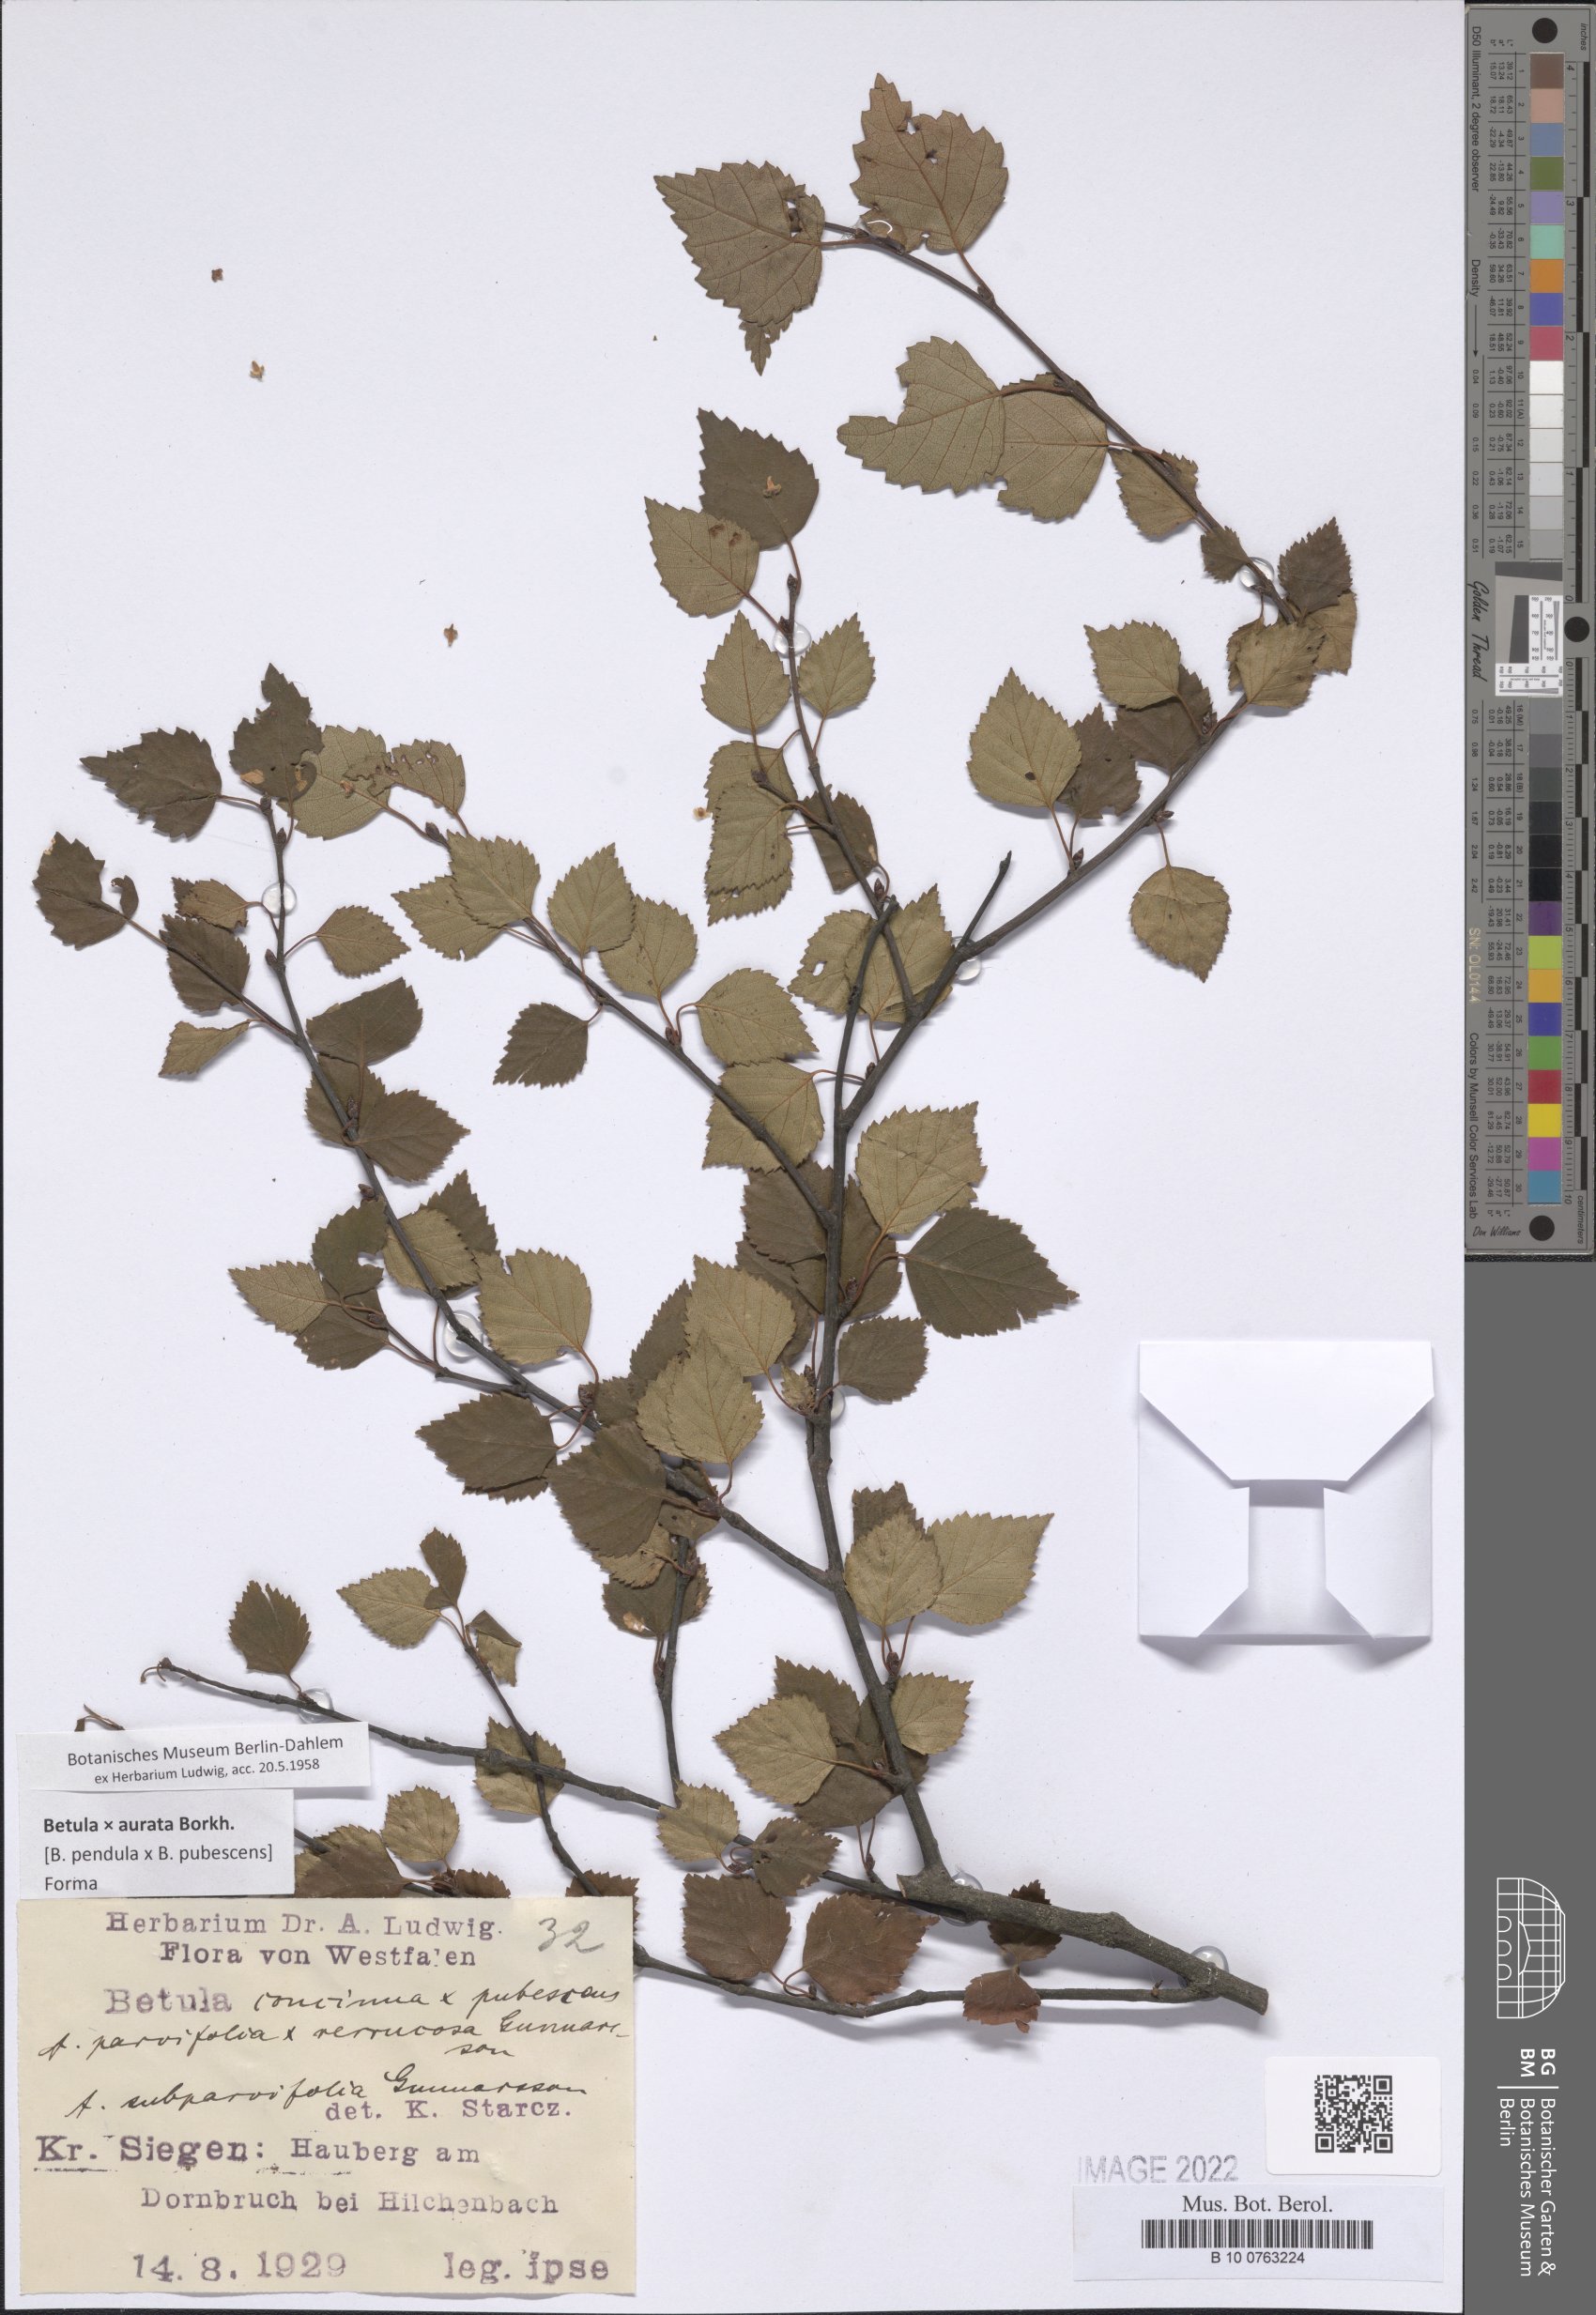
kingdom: Plantae
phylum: Tracheophyta
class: Magnoliopsida
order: Santalales
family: Loranthaceae
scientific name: Loranthaceae
